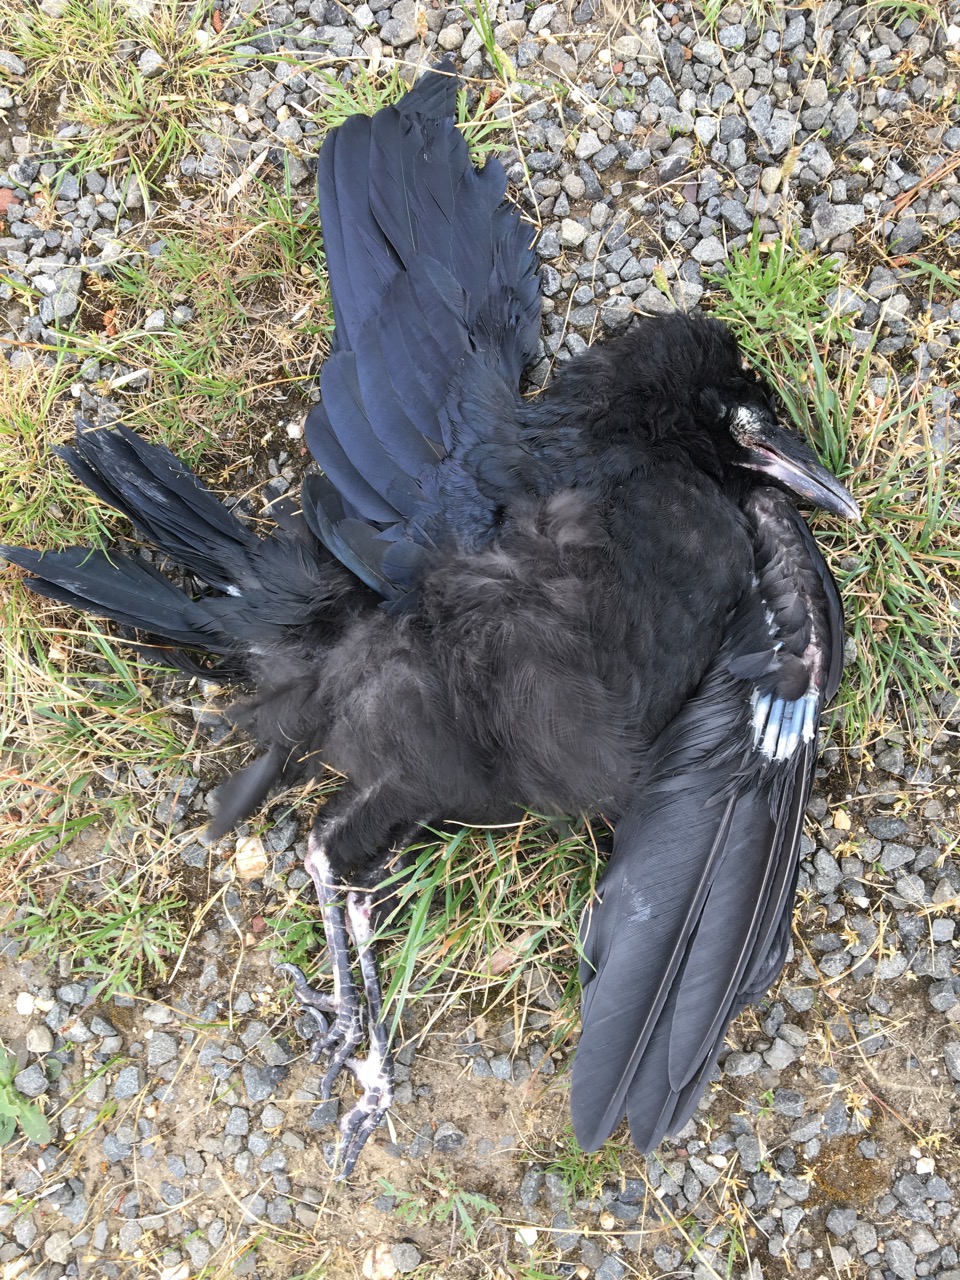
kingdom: Animalia
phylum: Chordata
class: Aves
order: Passeriformes
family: Corvidae
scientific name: Corvidae
